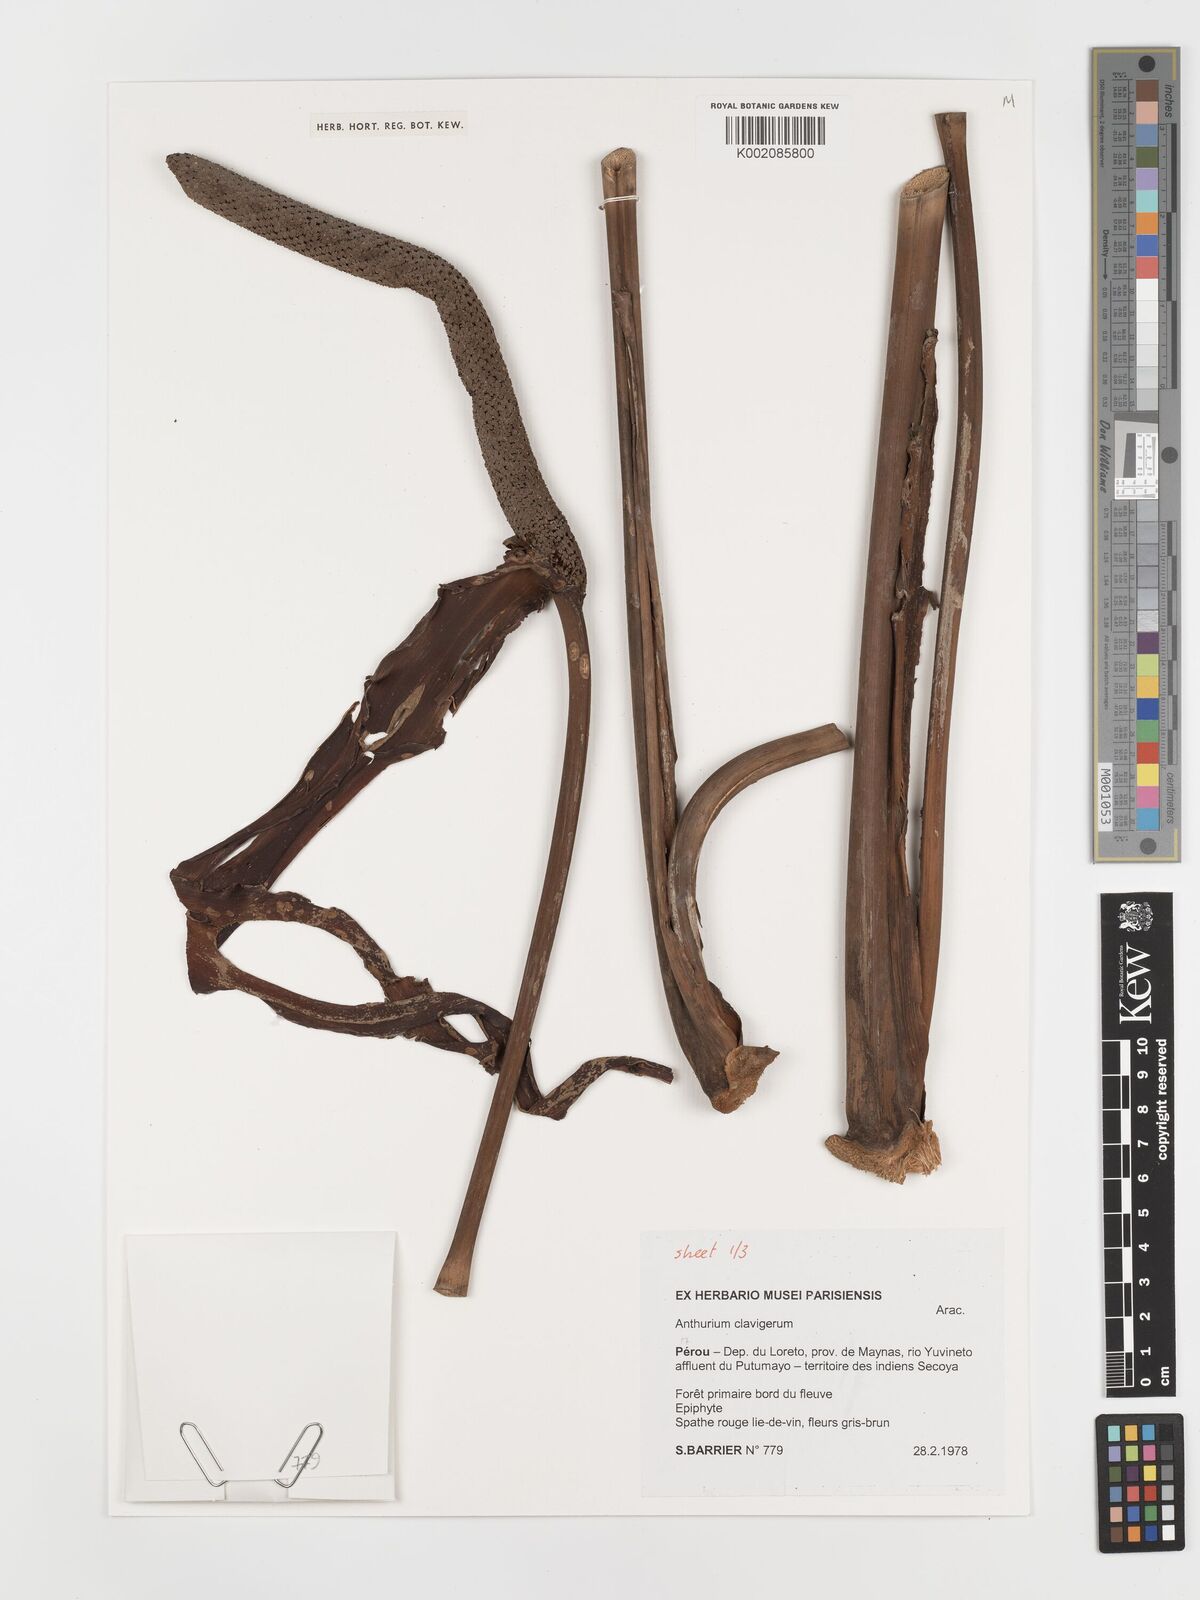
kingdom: Plantae
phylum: Tracheophyta
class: Liliopsida
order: Alismatales
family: Araceae
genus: Anthurium
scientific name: Anthurium clavigerum
